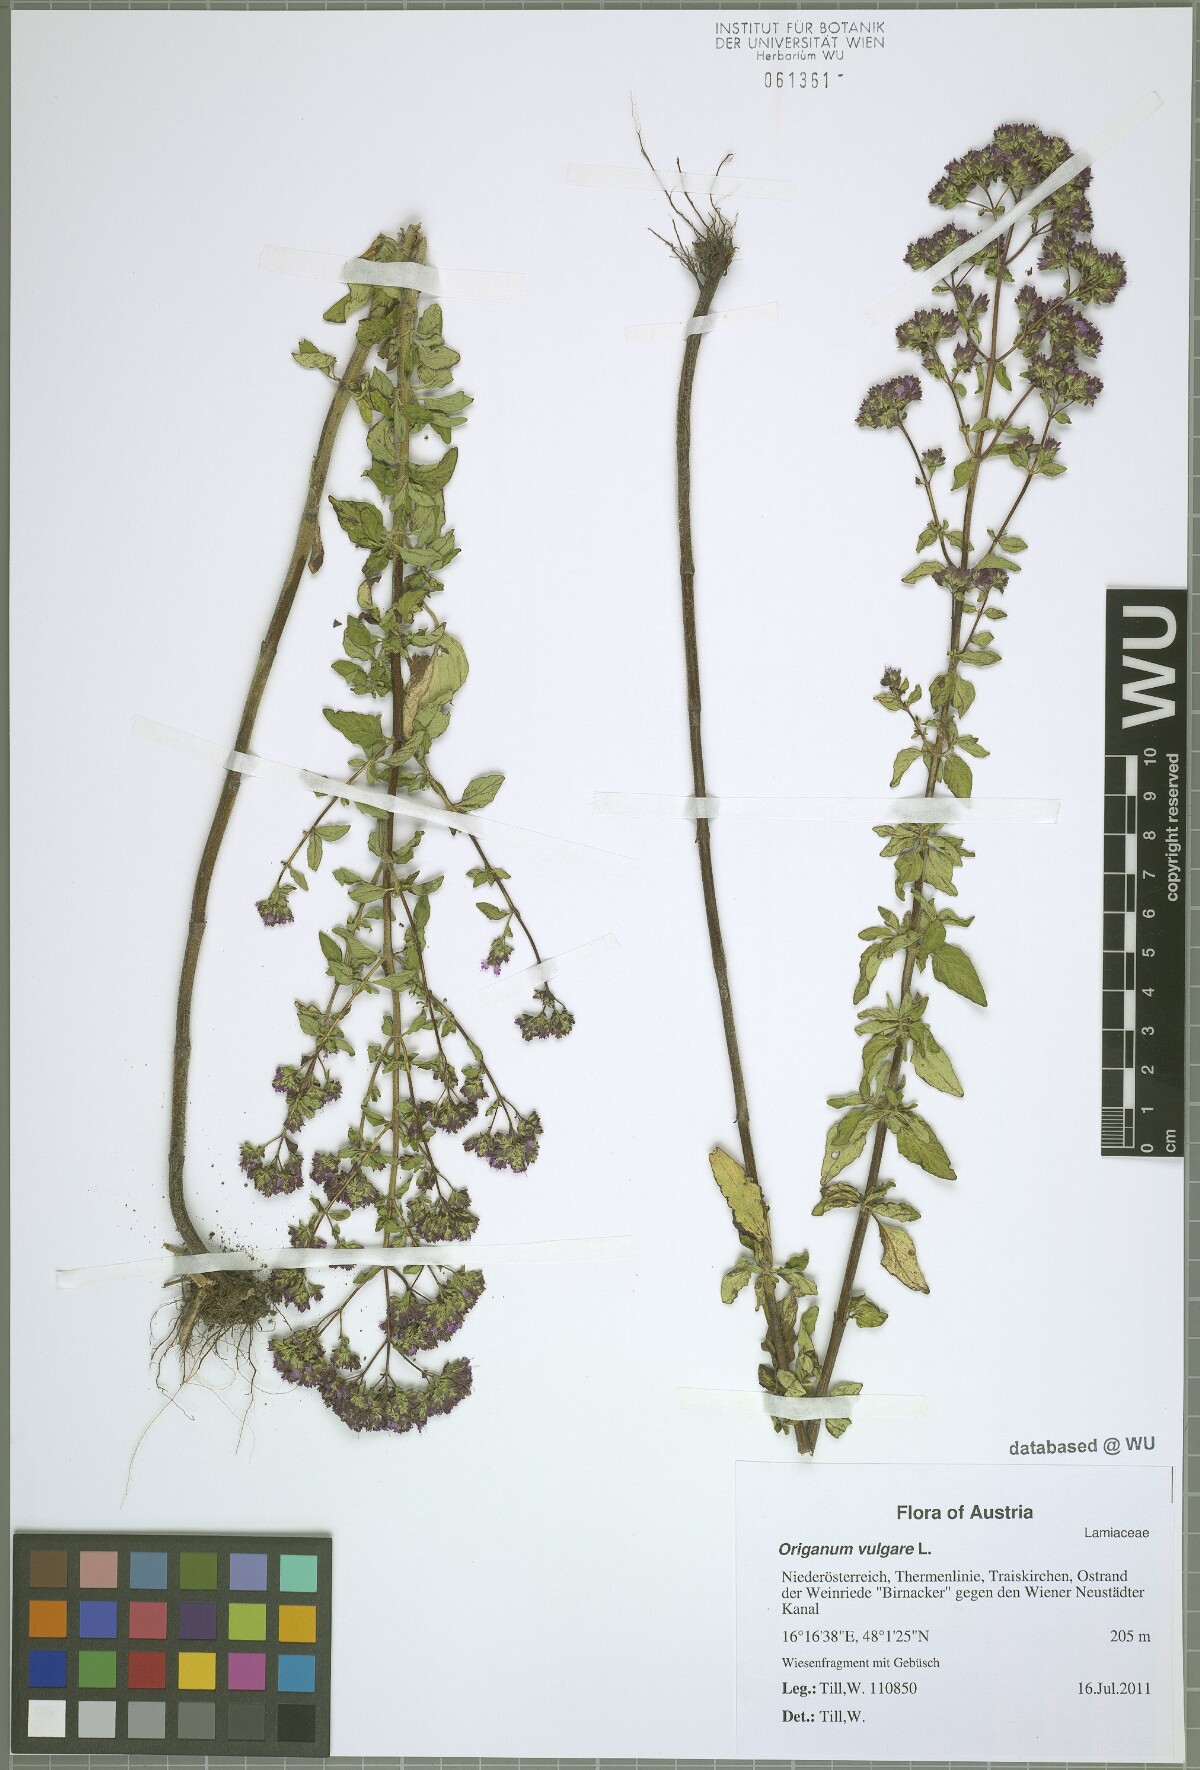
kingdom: Plantae
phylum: Tracheophyta
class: Magnoliopsida
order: Lamiales
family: Lamiaceae
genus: Origanum
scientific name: Origanum vulgare
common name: Wild marjoram
